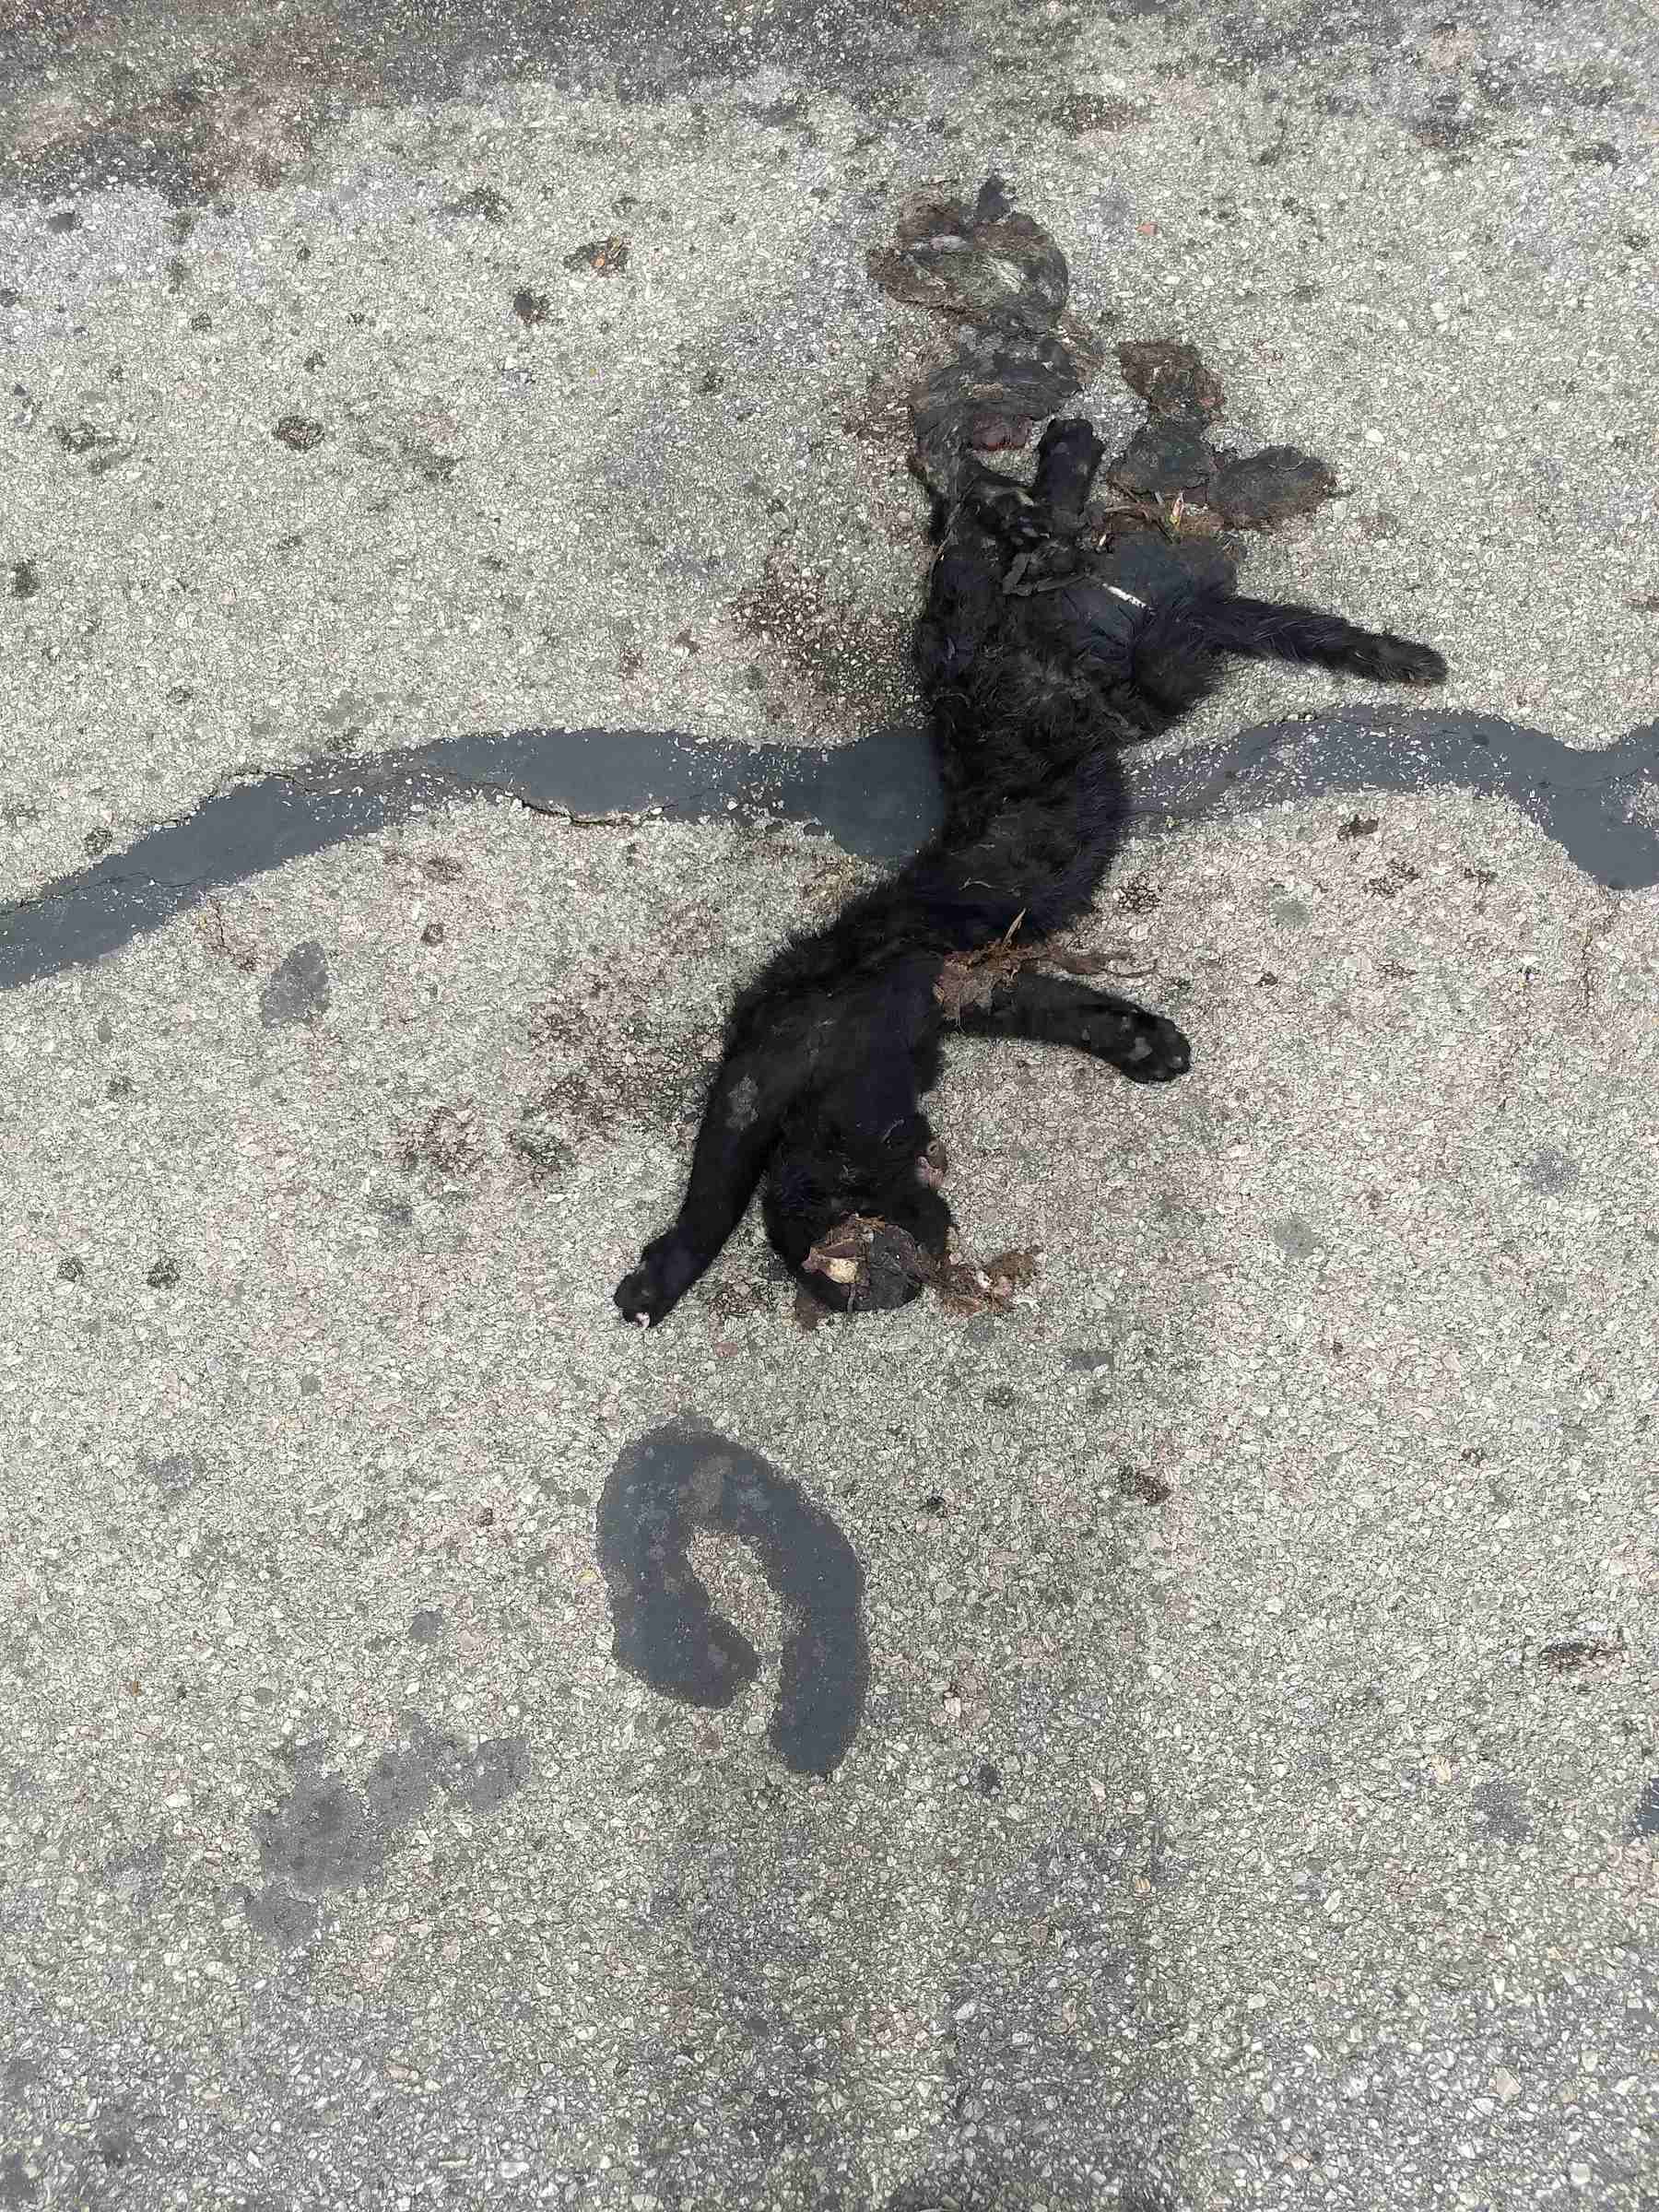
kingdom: Animalia
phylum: Chordata
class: Mammalia
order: Carnivora
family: Felidae
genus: Felis
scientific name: Felis catus
